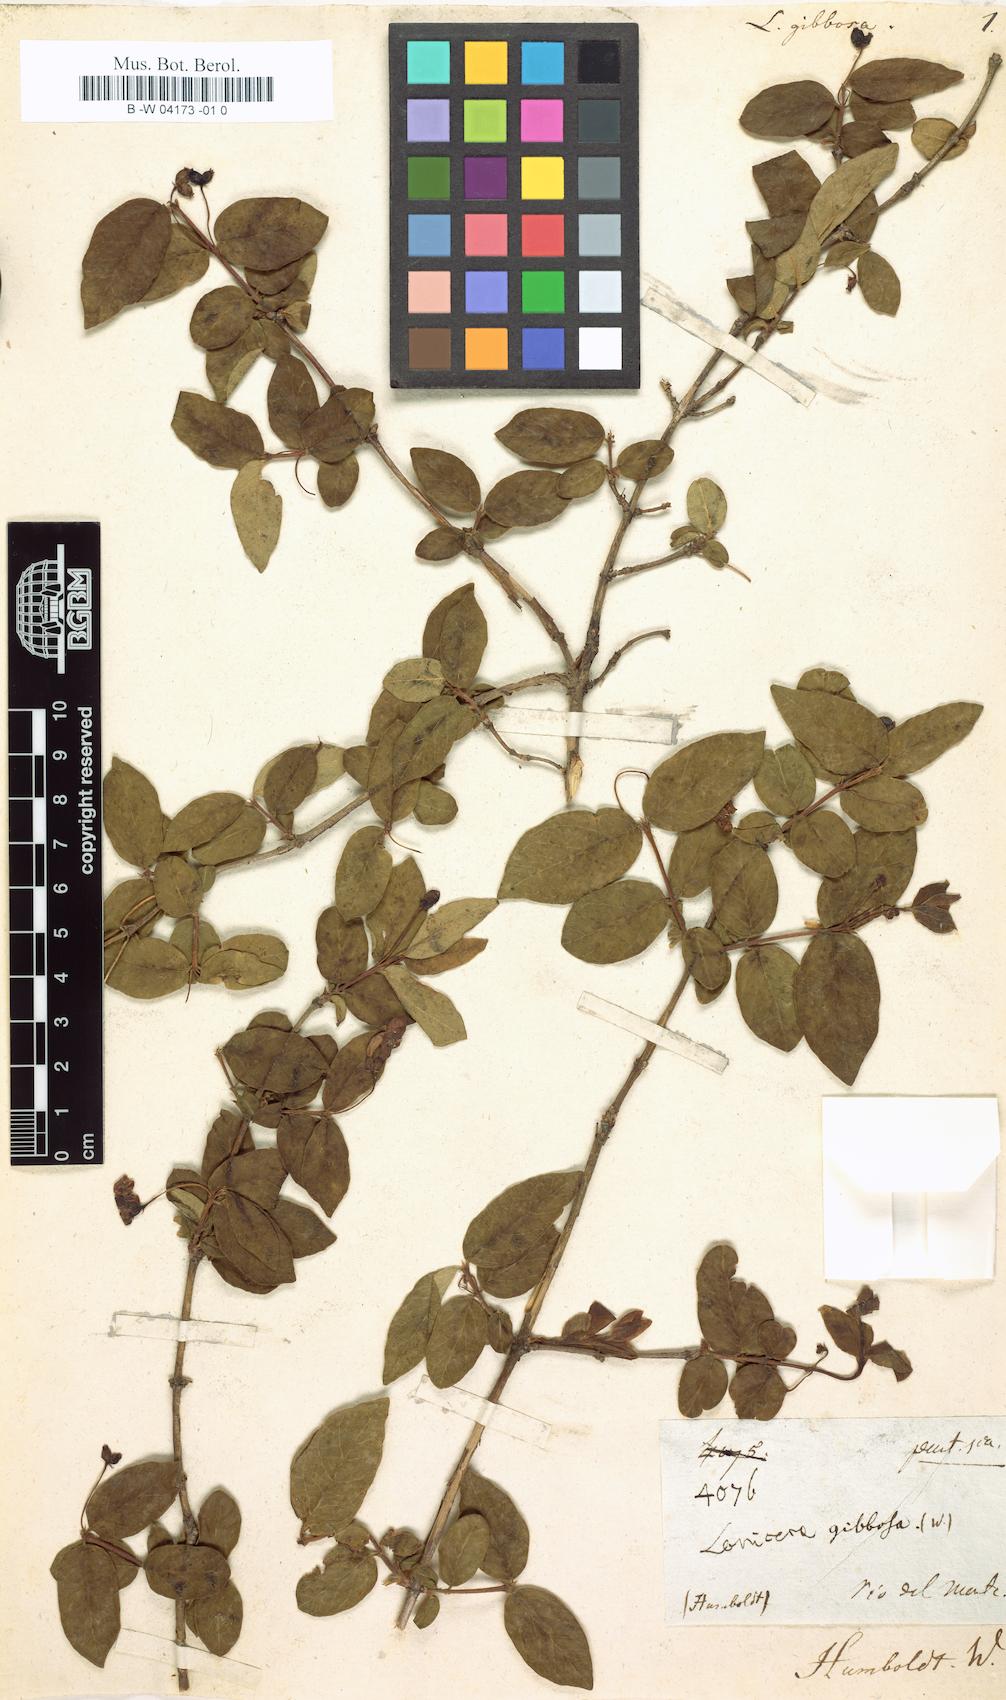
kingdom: Plantae
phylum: Tracheophyta
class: Magnoliopsida
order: Dipsacales
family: Caprifoliaceae
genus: Lonicera
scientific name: Lonicera
